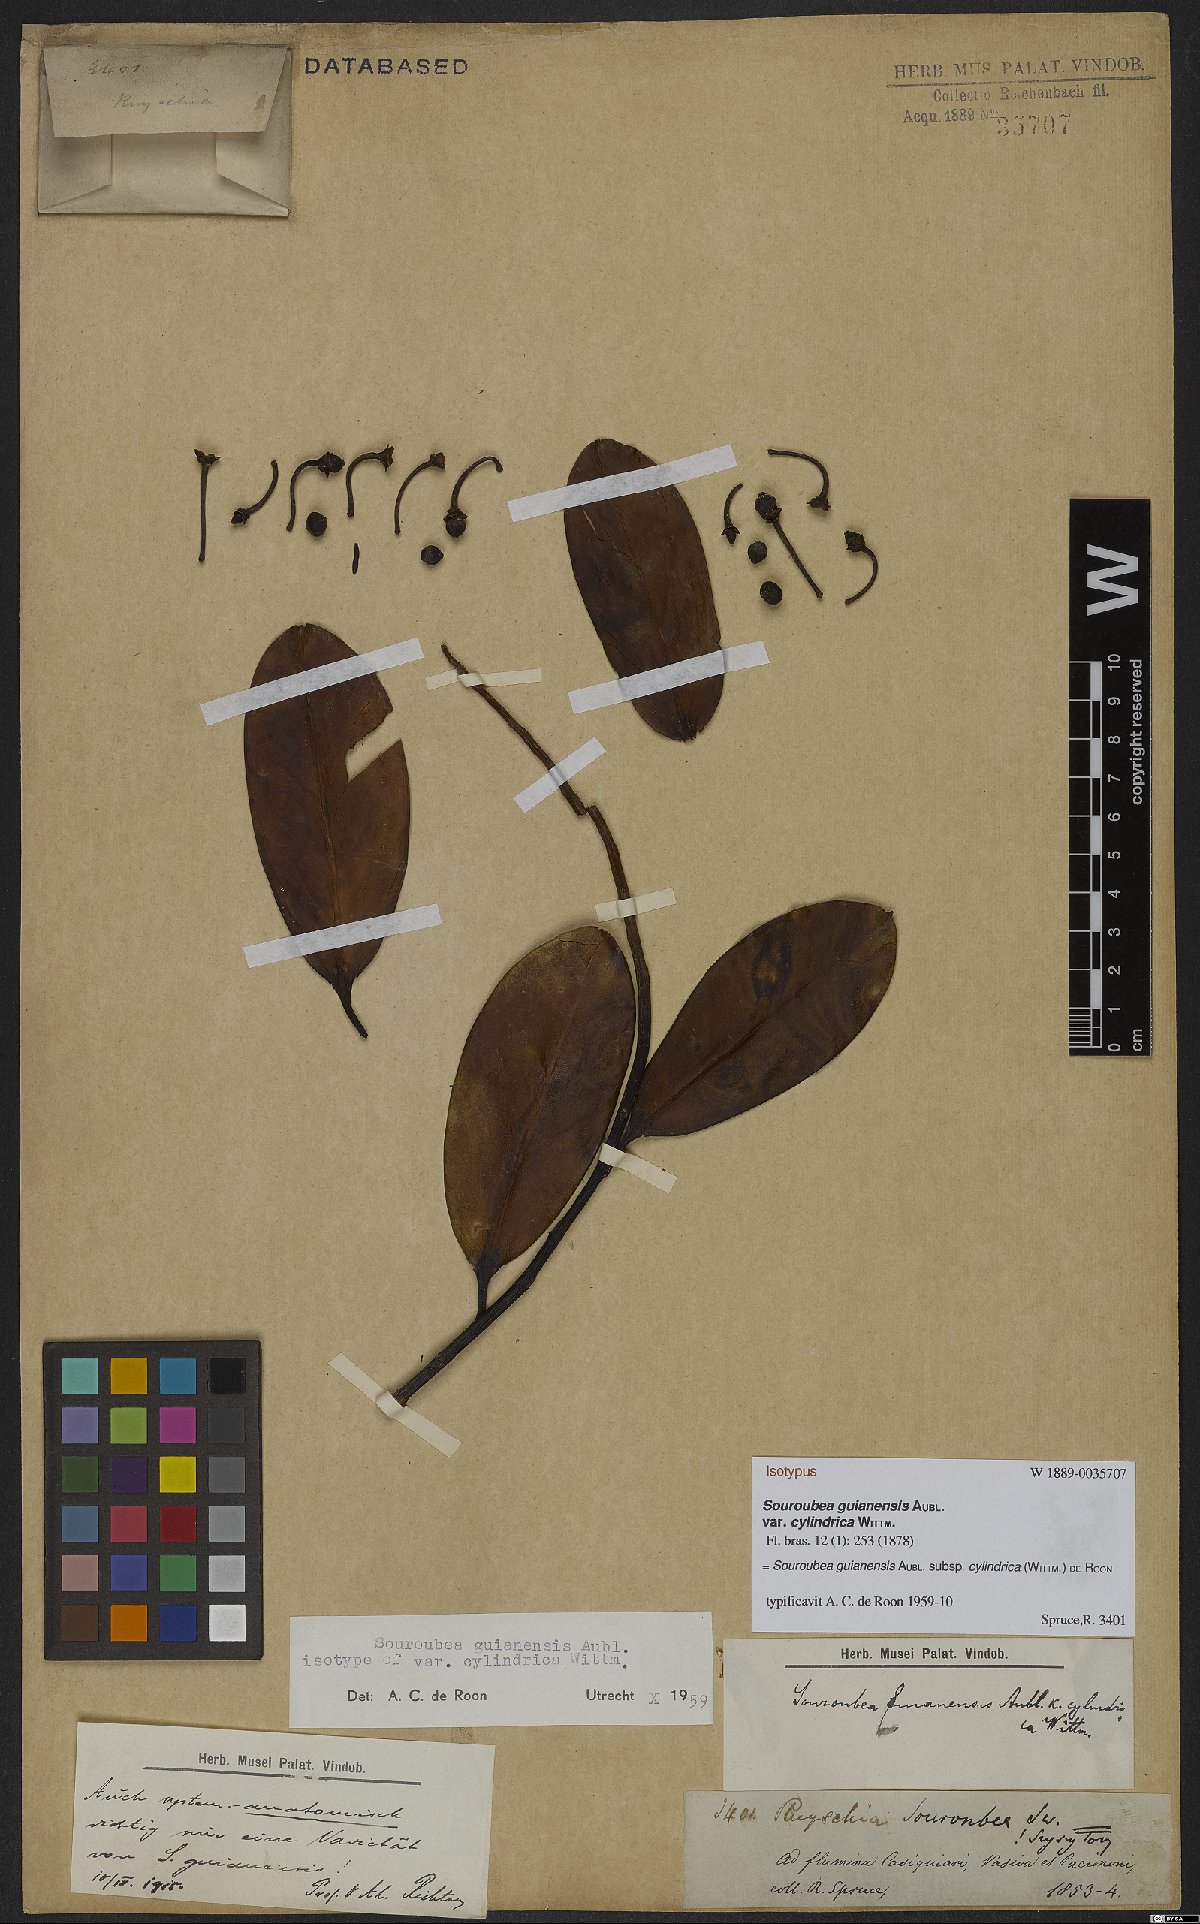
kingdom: Plantae
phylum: Tracheophyta
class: Magnoliopsida
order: Ericales
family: Marcgraviaceae
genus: Souroubea
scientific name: Souroubea guianensis
